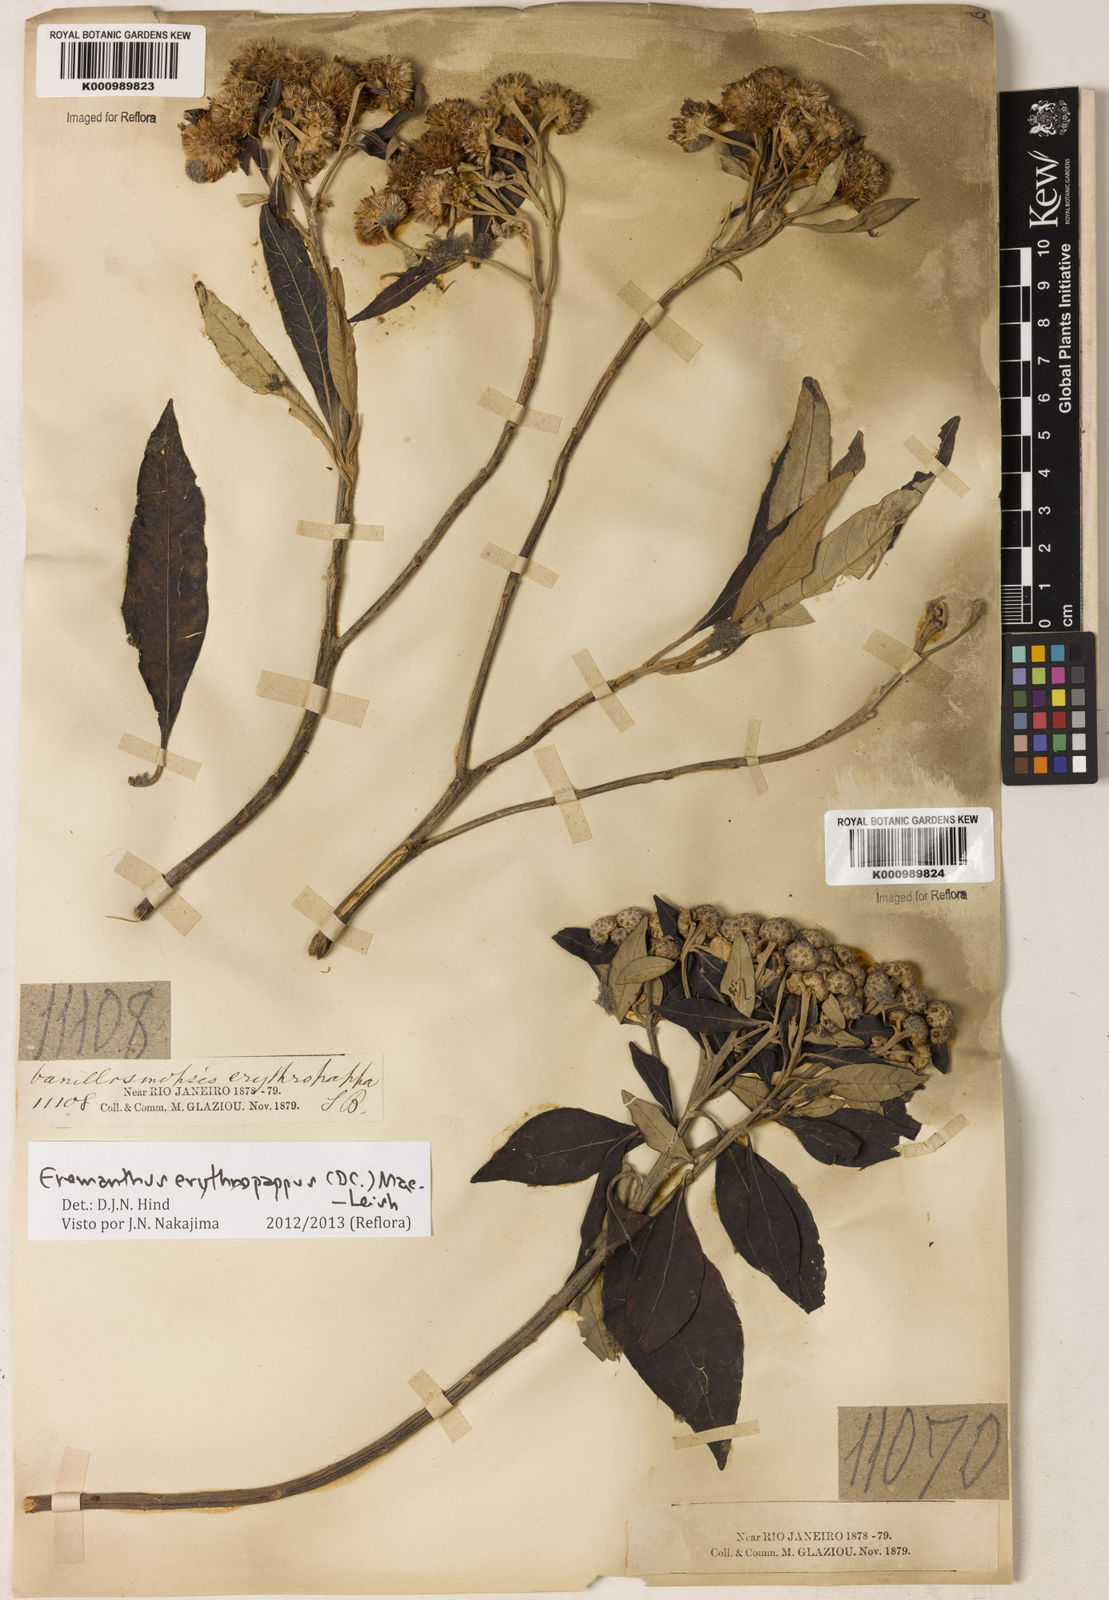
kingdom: Plantae
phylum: Tracheophyta
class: Magnoliopsida
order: Asterales
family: Asteraceae
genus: Eremanthus
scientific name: Eremanthus erythropappus
